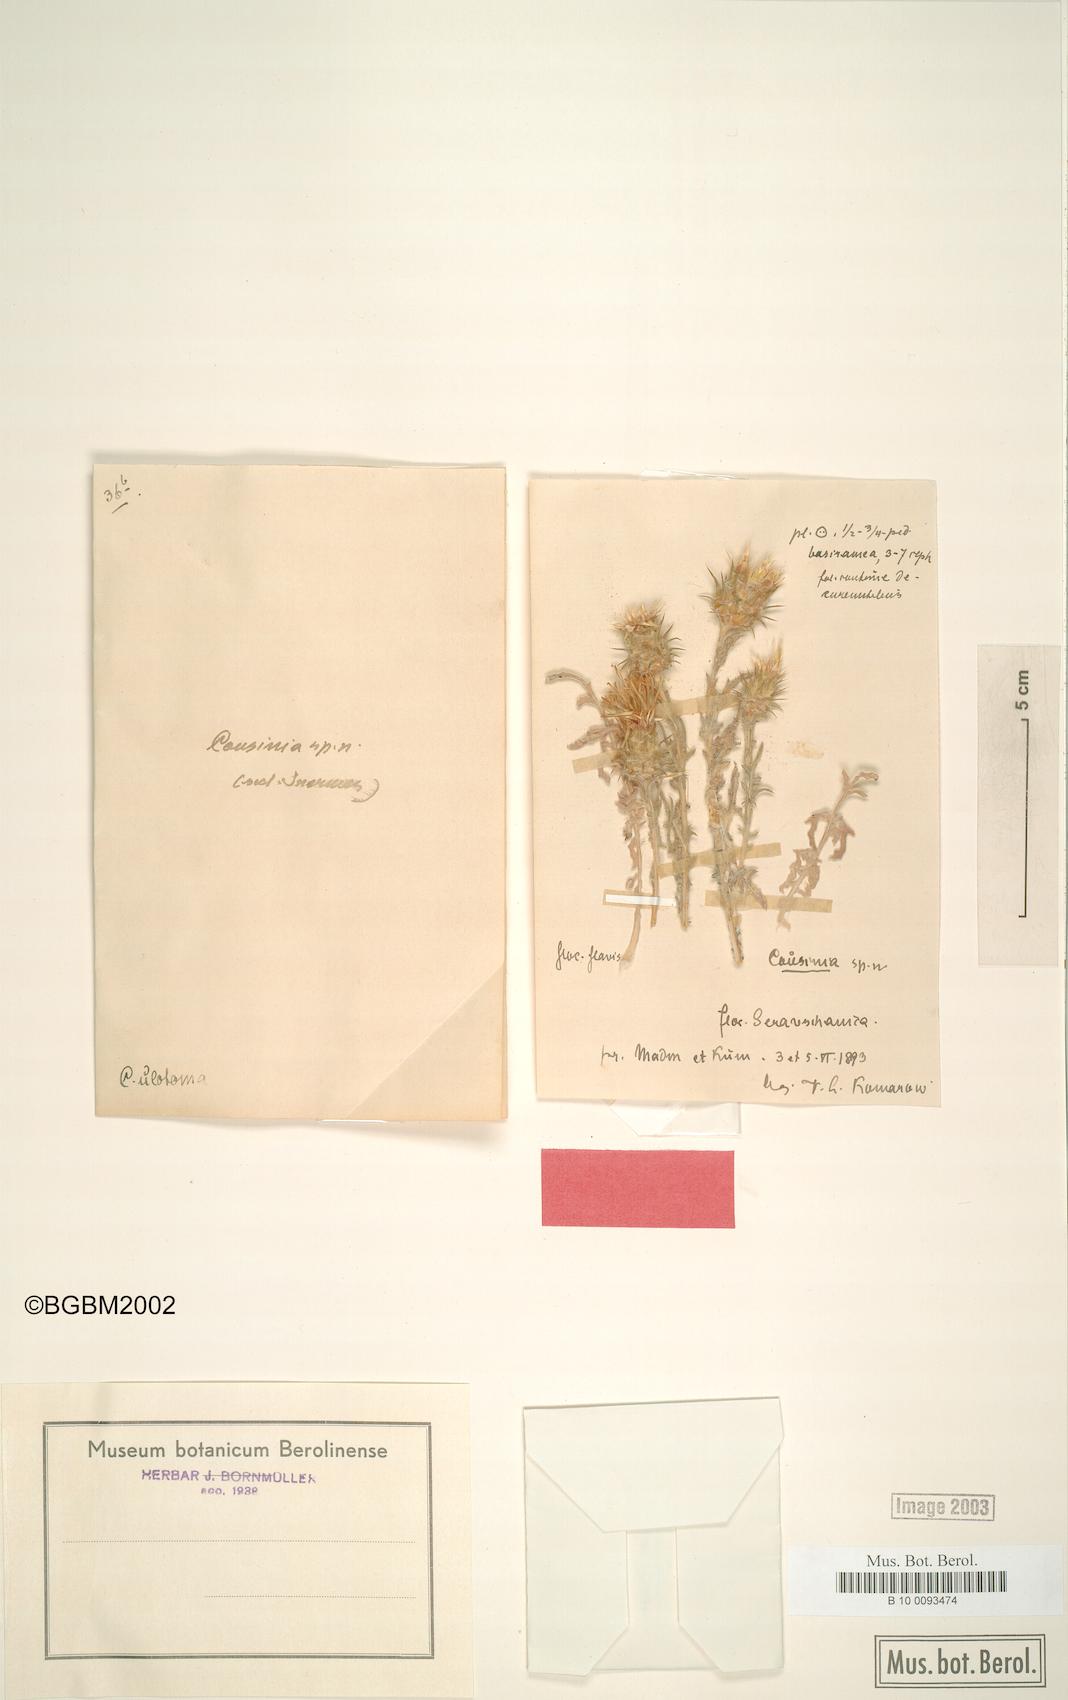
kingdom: Plantae
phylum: Tracheophyta
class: Magnoliopsida
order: Asterales
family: Asteraceae
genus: Cousinia
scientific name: Cousinia ulotoma
